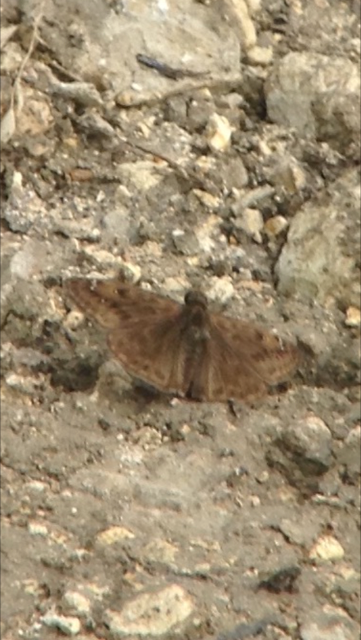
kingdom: Animalia
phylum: Arthropoda
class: Insecta
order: Lepidoptera
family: Hesperiidae
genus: Gesta
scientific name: Gesta
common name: Horace's Duskywing
